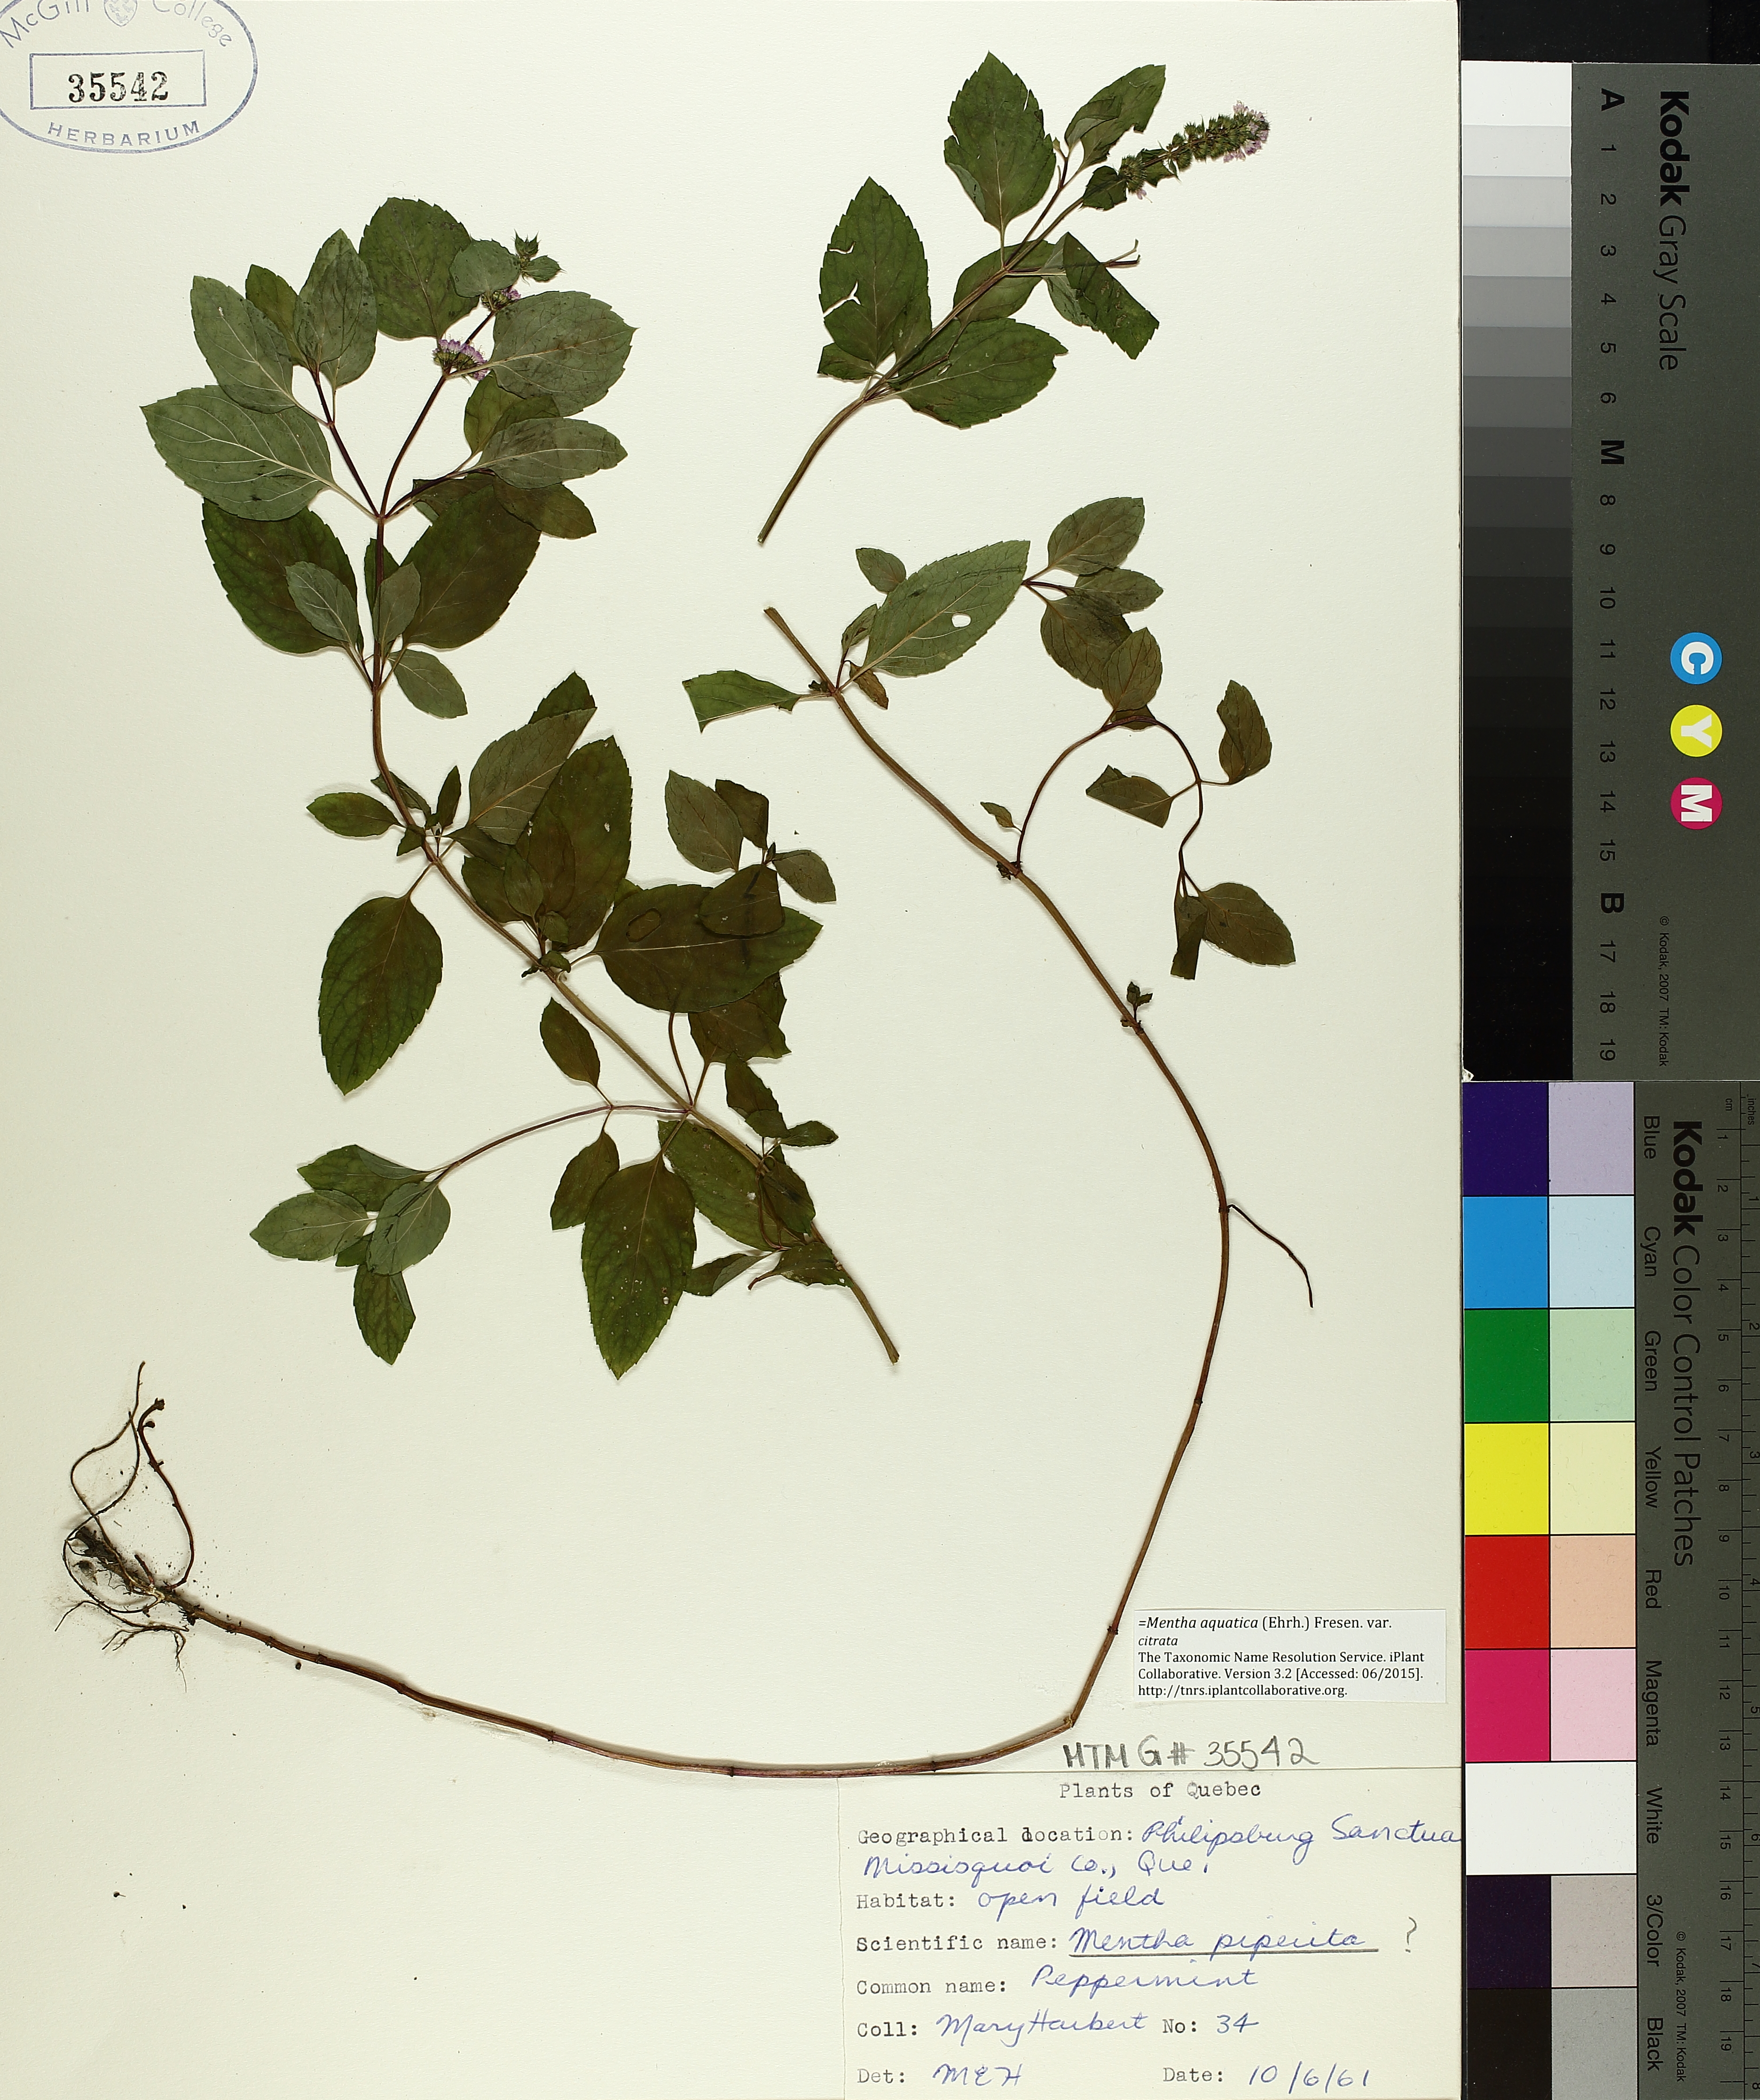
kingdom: Plantae
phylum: Tracheophyta
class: Magnoliopsida
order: Lamiales
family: Lamiaceae
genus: Mentha
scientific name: Mentha piperita
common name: Peppermint
